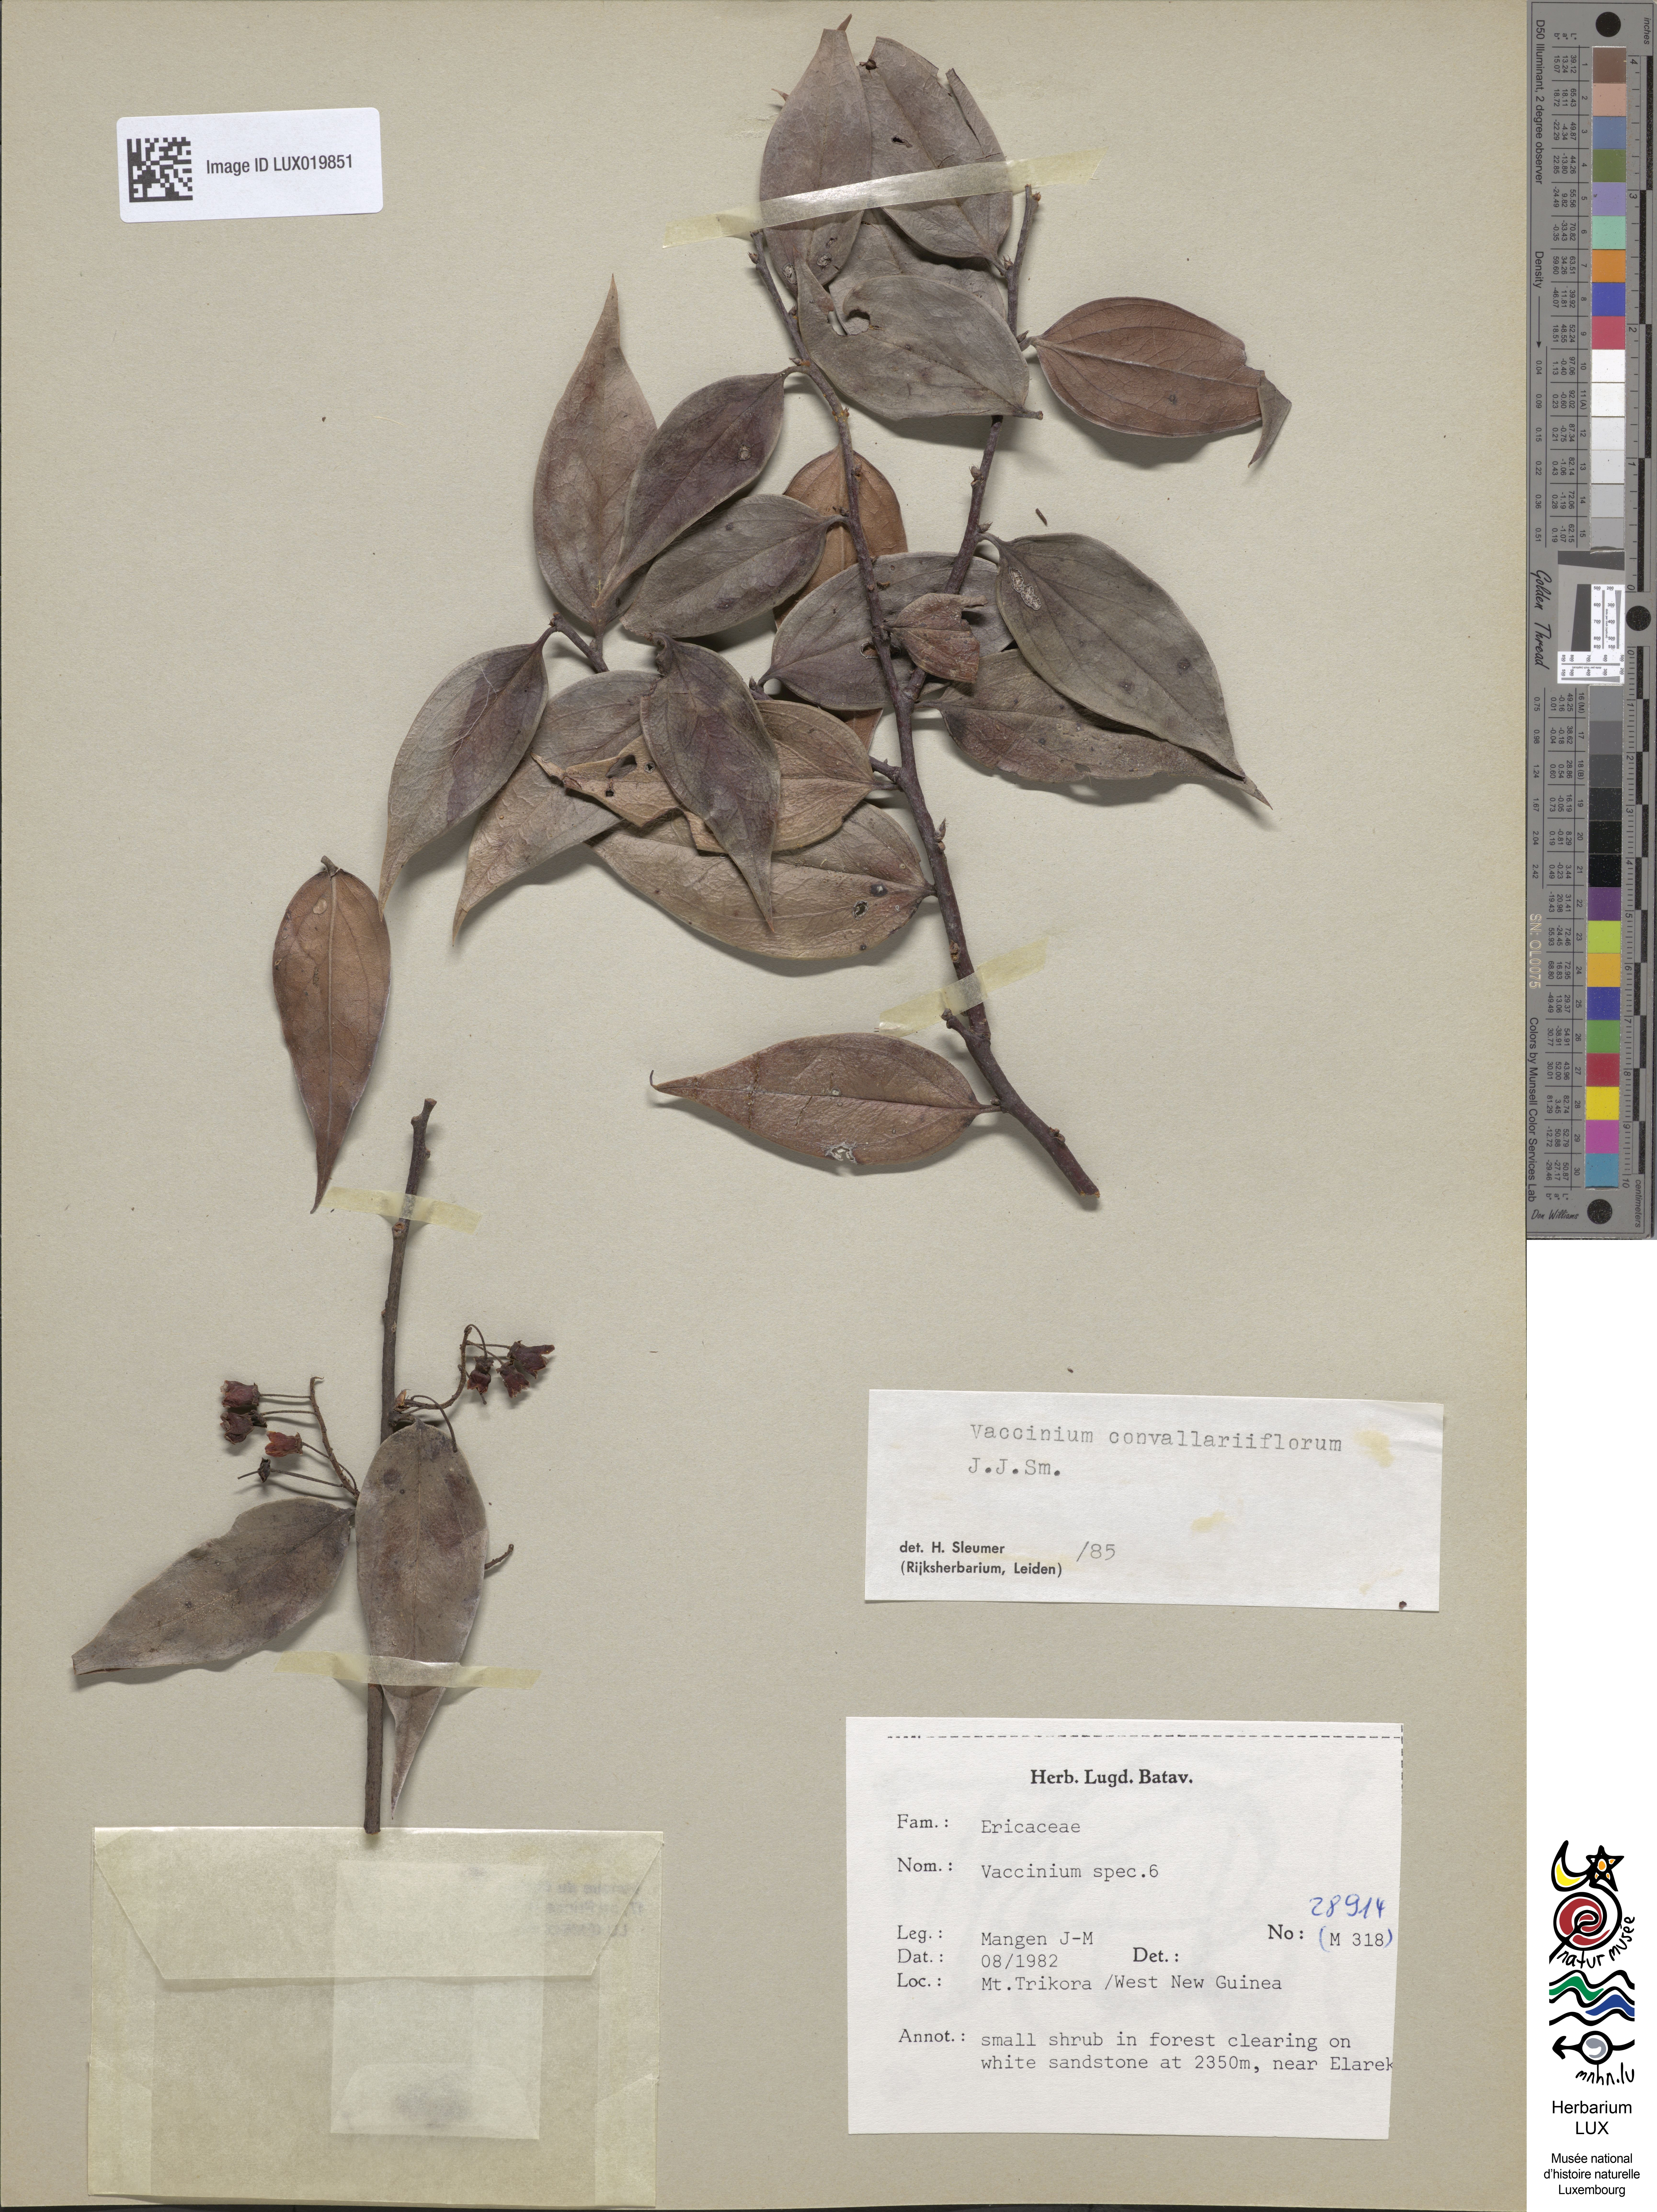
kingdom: Plantae
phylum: Tracheophyta
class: Magnoliopsida
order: Ericales
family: Ericaceae
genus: Vaccinium
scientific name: Vaccinium
